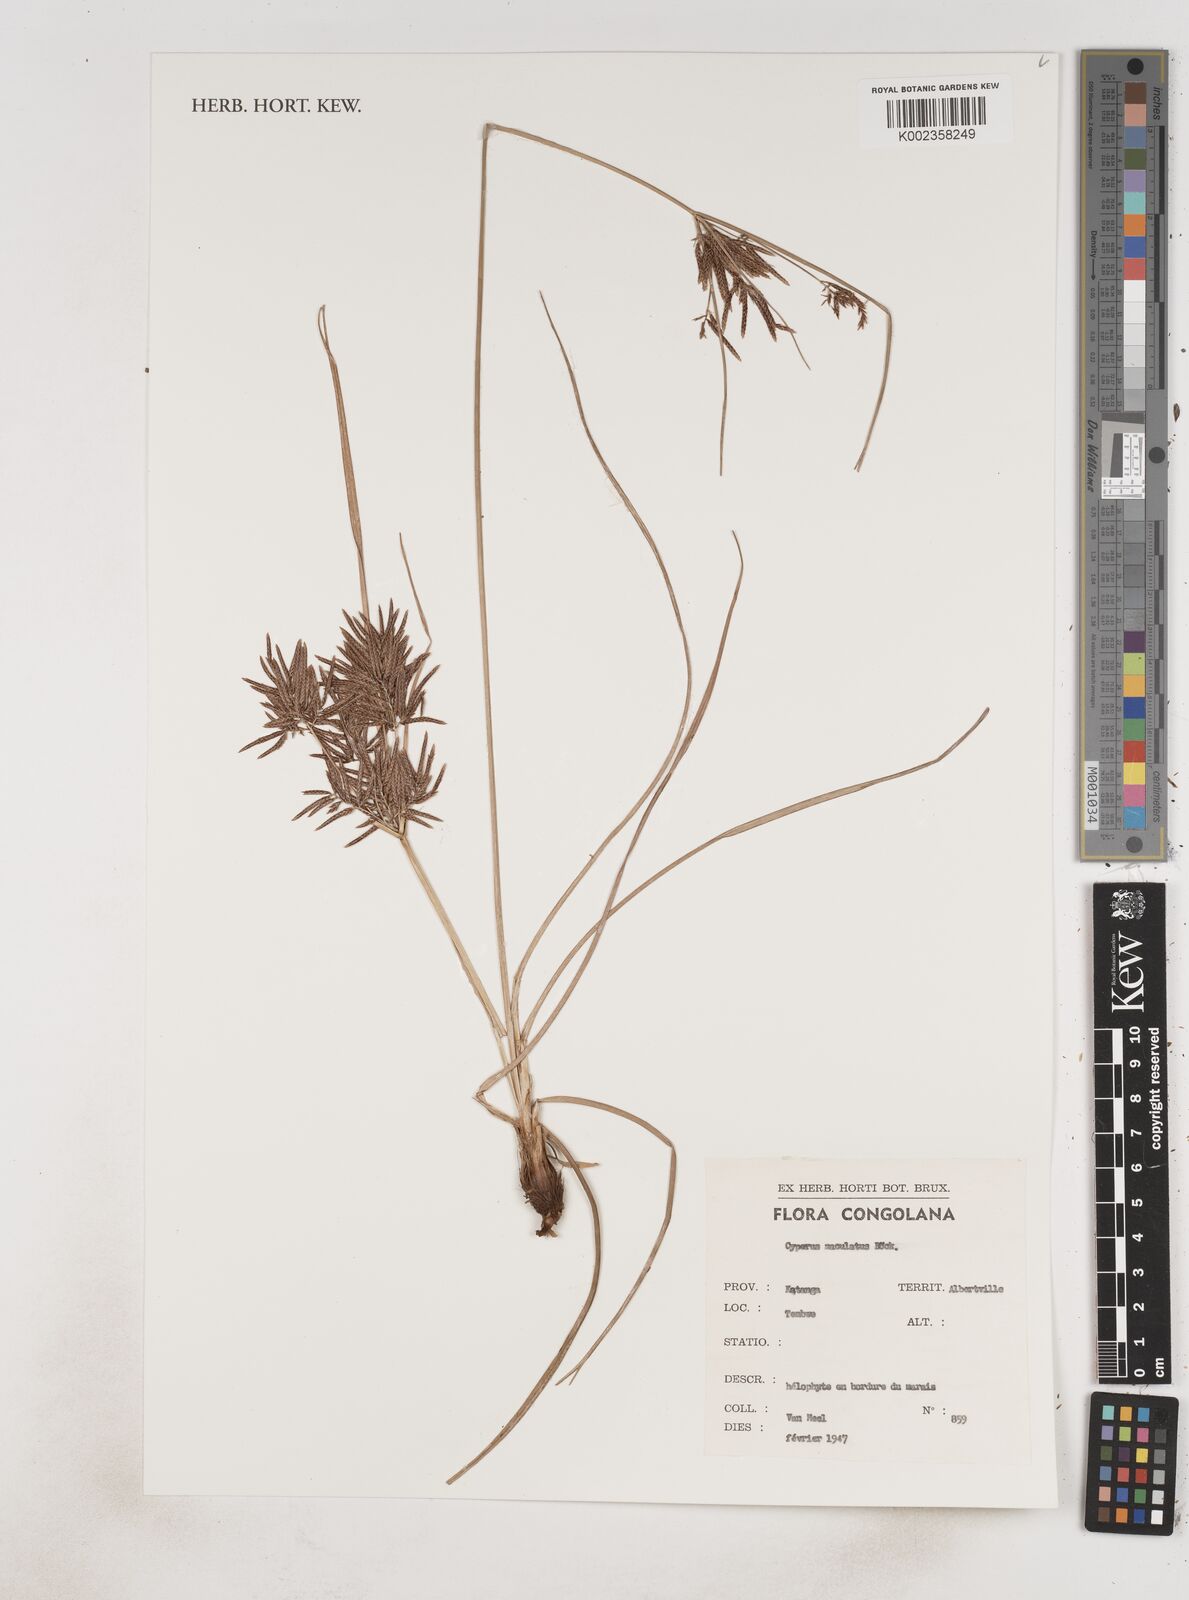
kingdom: Plantae
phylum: Tracheophyta
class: Liliopsida
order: Poales
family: Cyperaceae
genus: Cyperus
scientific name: Cyperus maculatus
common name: Maculated sedge
